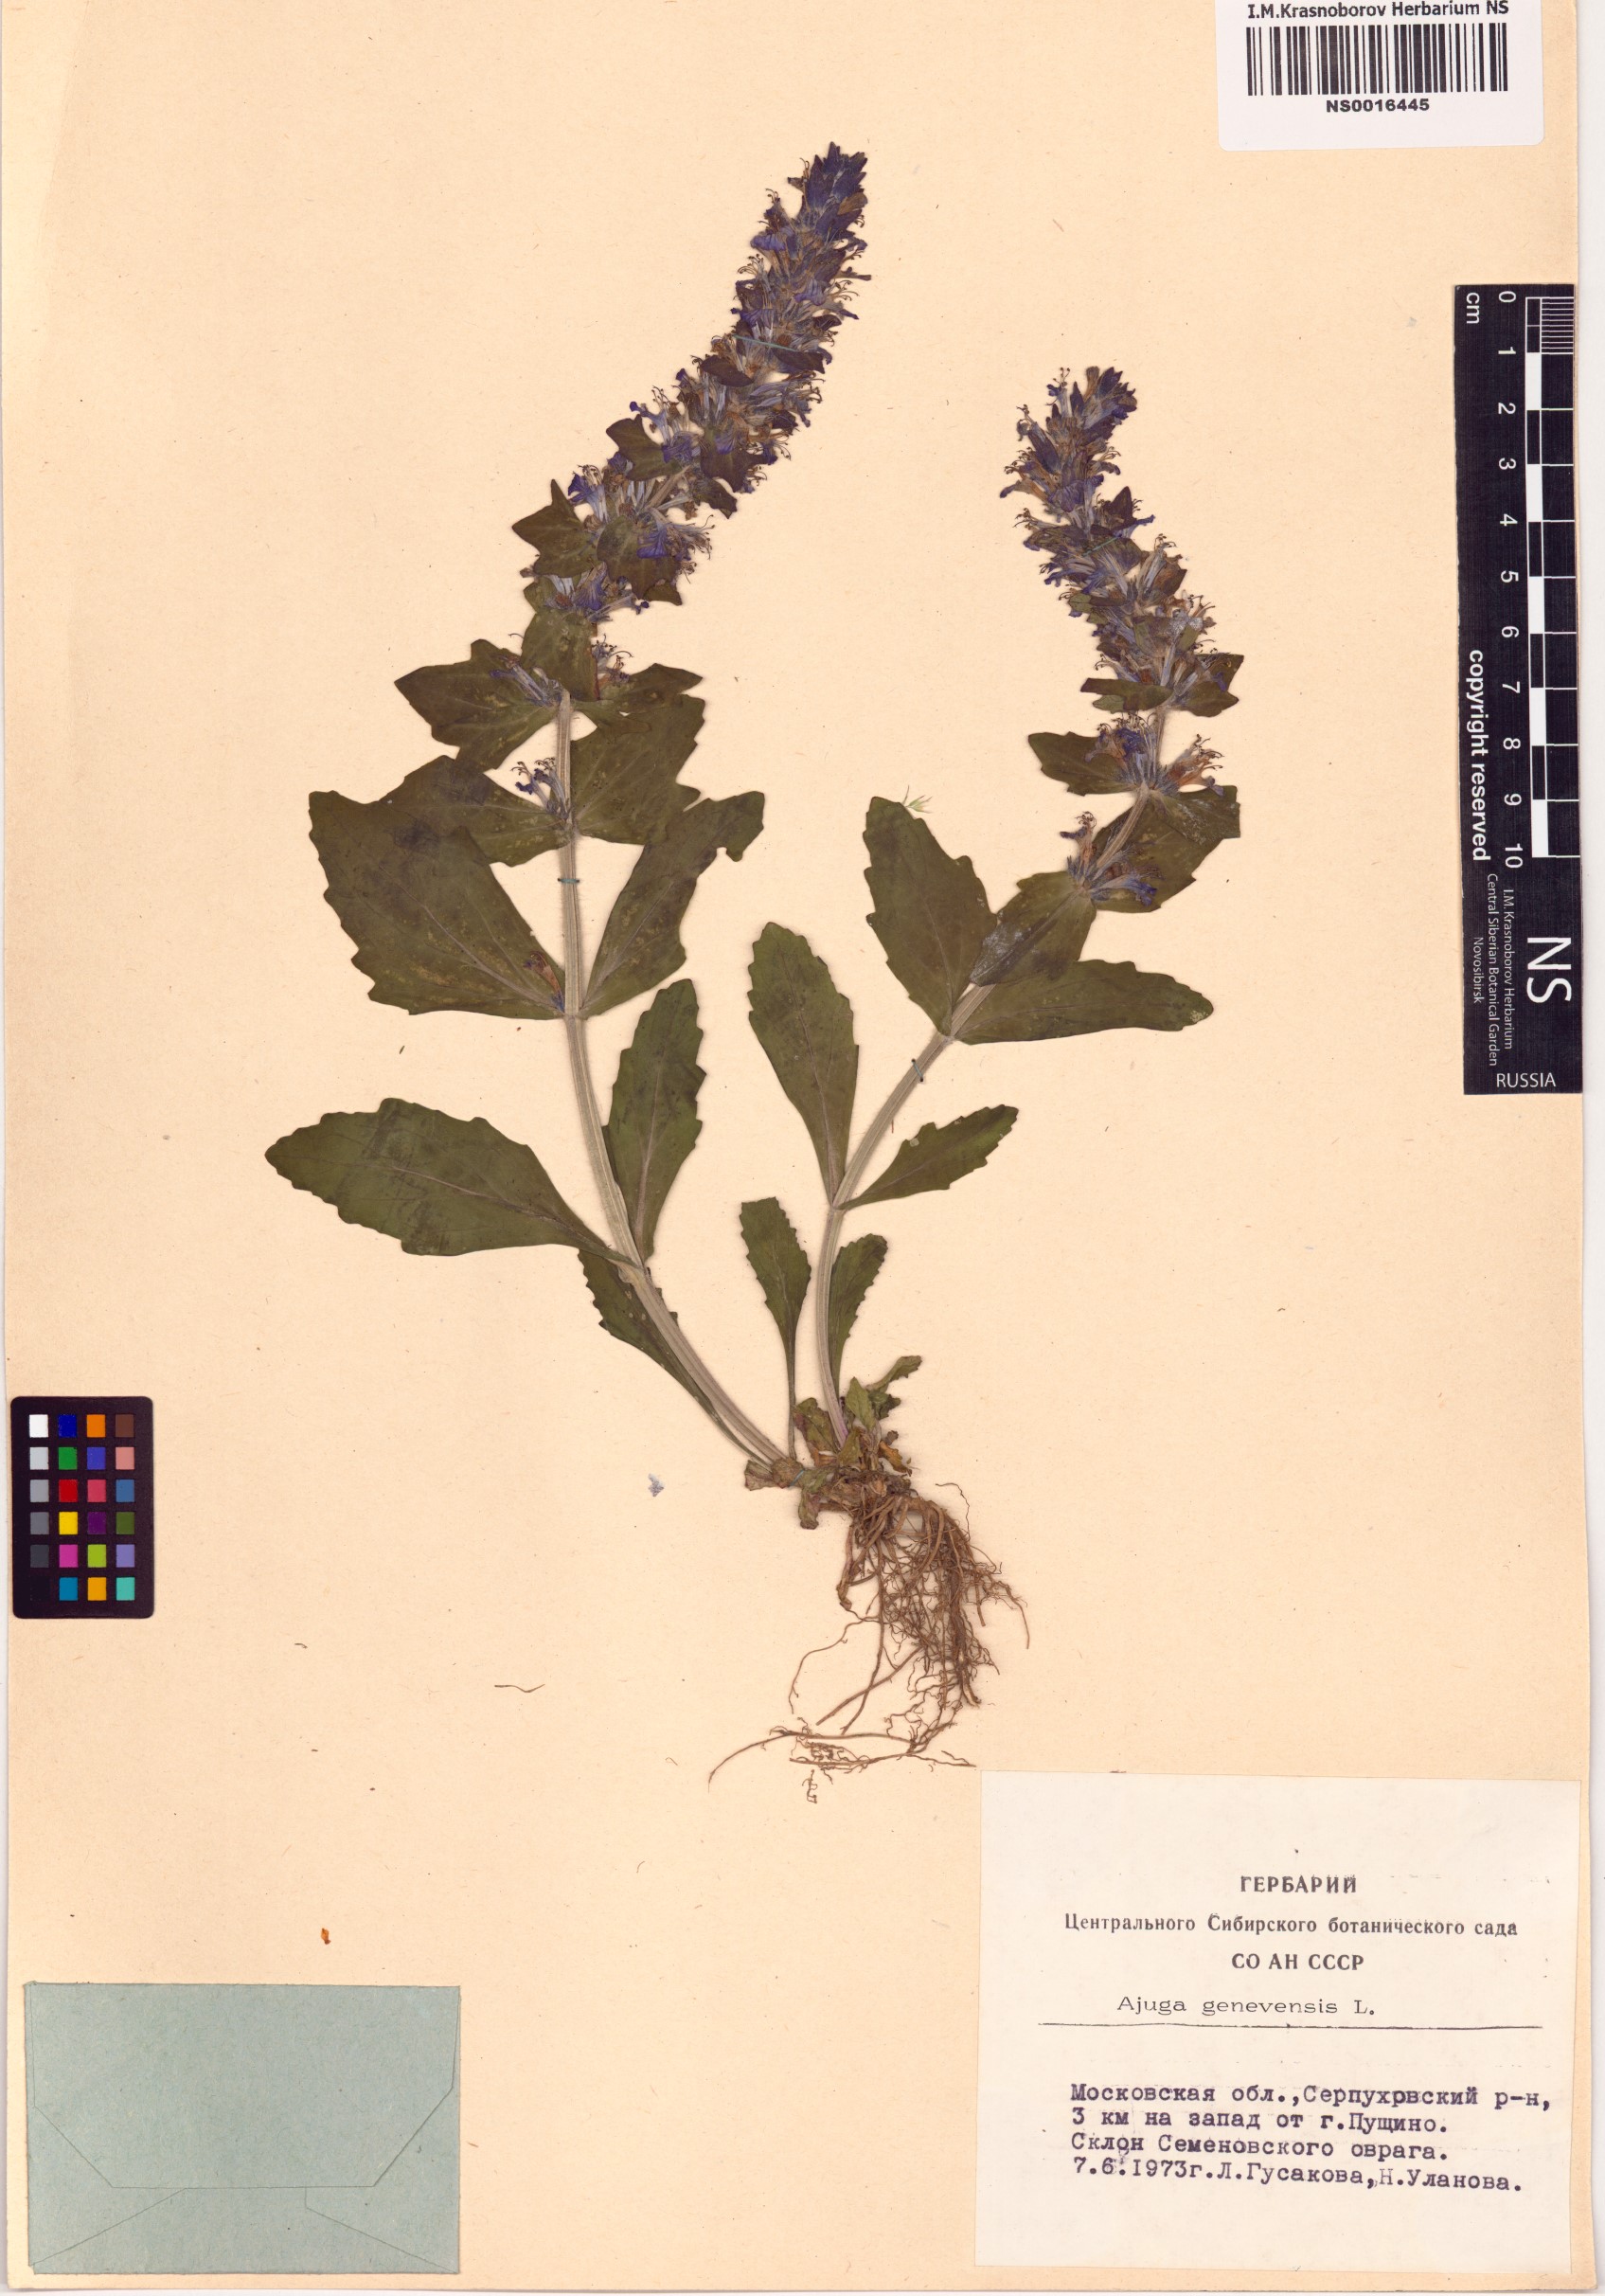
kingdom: Plantae
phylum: Tracheophyta
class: Magnoliopsida
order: Lamiales
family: Lamiaceae
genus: Ajuga
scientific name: Ajuga genevensis
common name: Blue bugle
